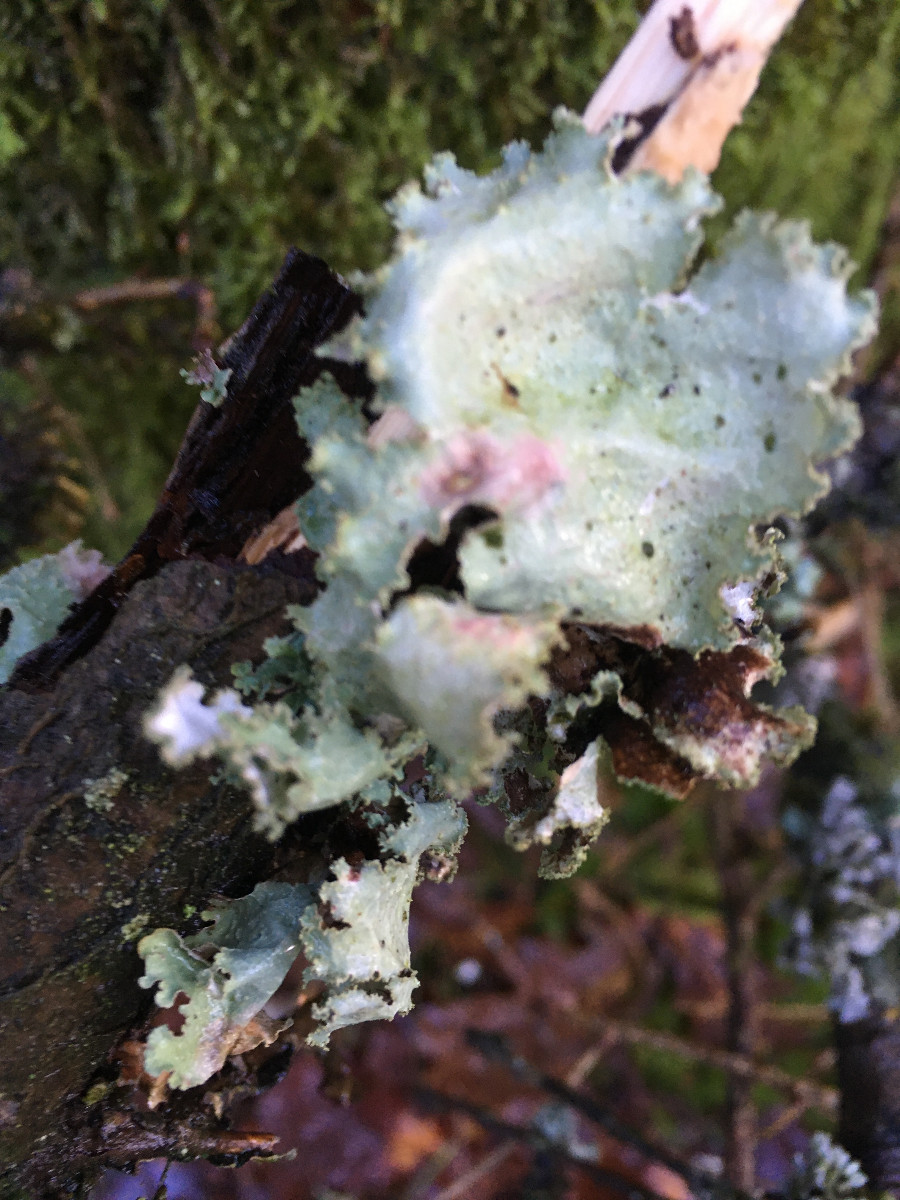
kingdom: Fungi
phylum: Ascomycota
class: Lecanoromycetes
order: Lecanorales
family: Parmeliaceae
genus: Platismatia
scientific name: Platismatia glauca
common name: blågrå papirlav
